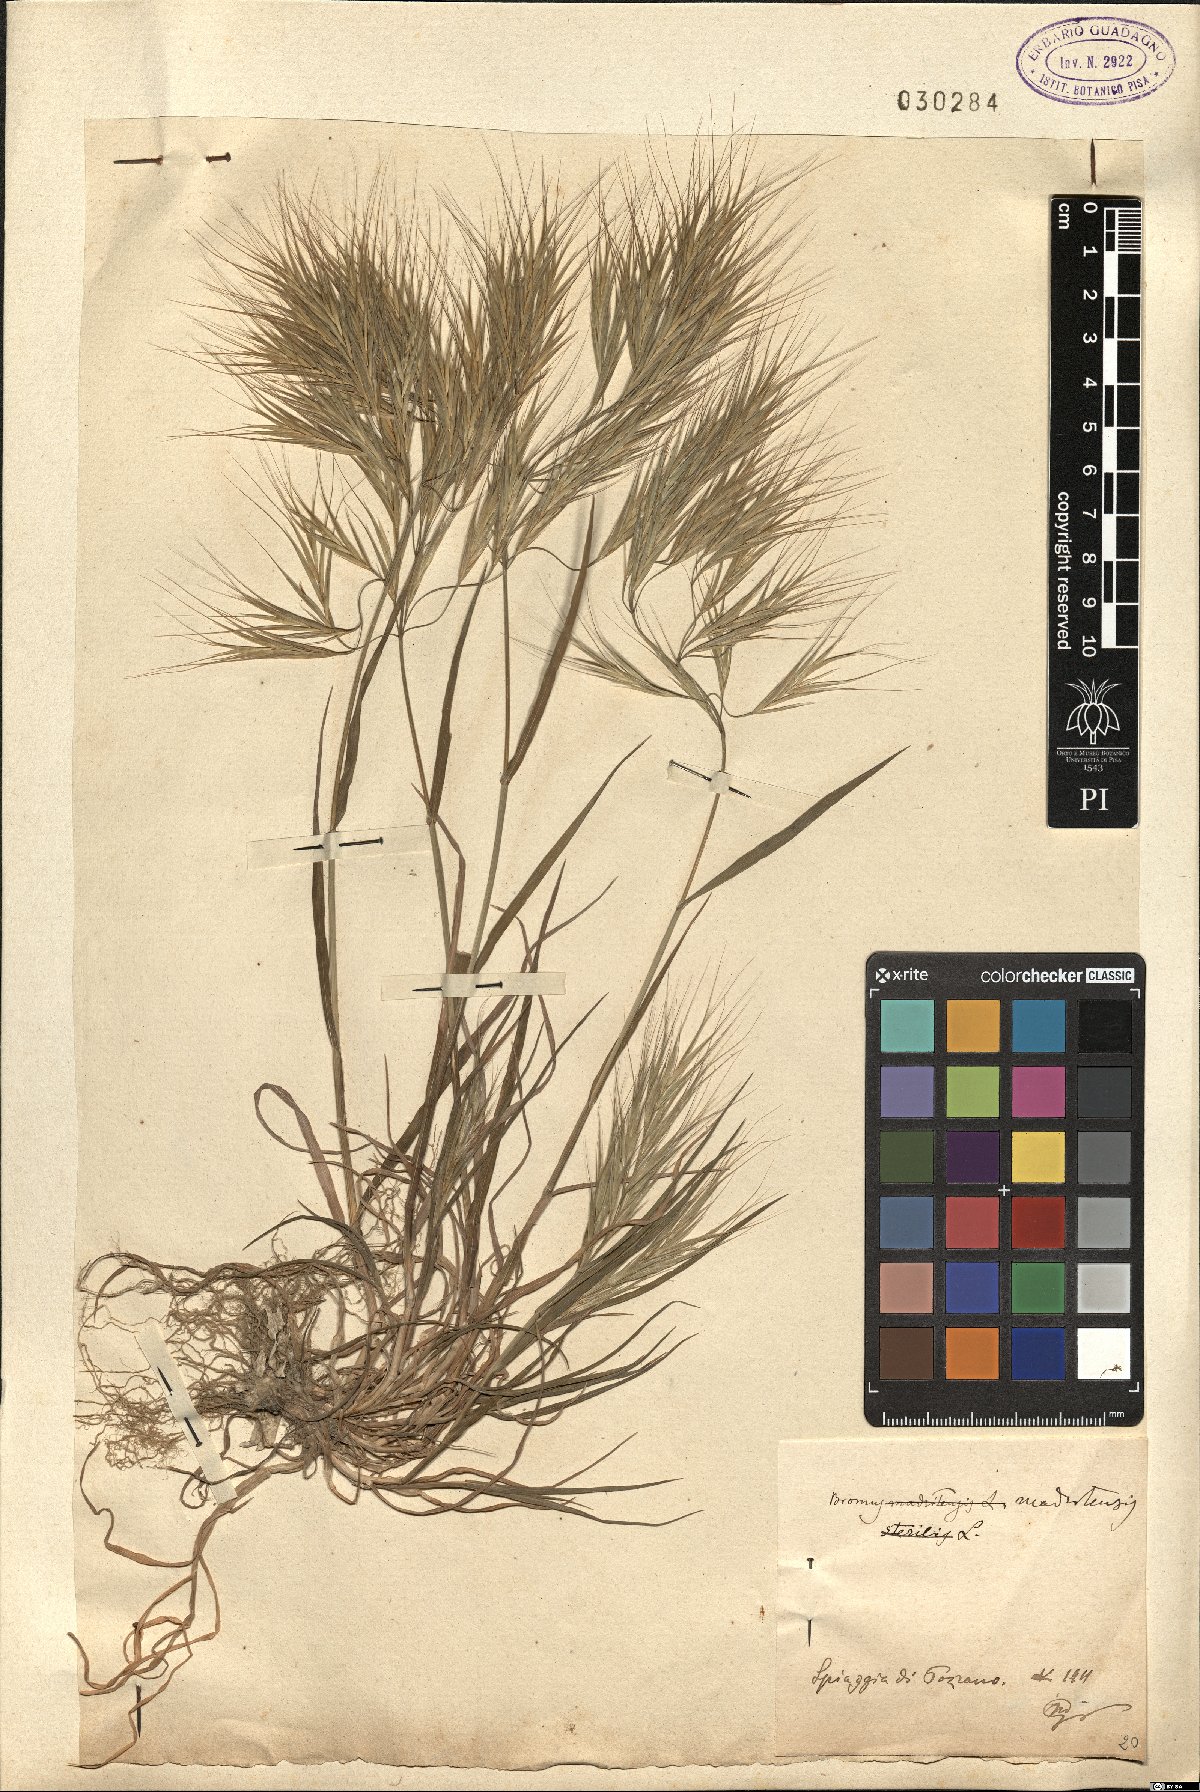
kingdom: Plantae
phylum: Tracheophyta
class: Liliopsida
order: Poales
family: Poaceae
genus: Bromus
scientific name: Bromus madritensis
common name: Compact brome
